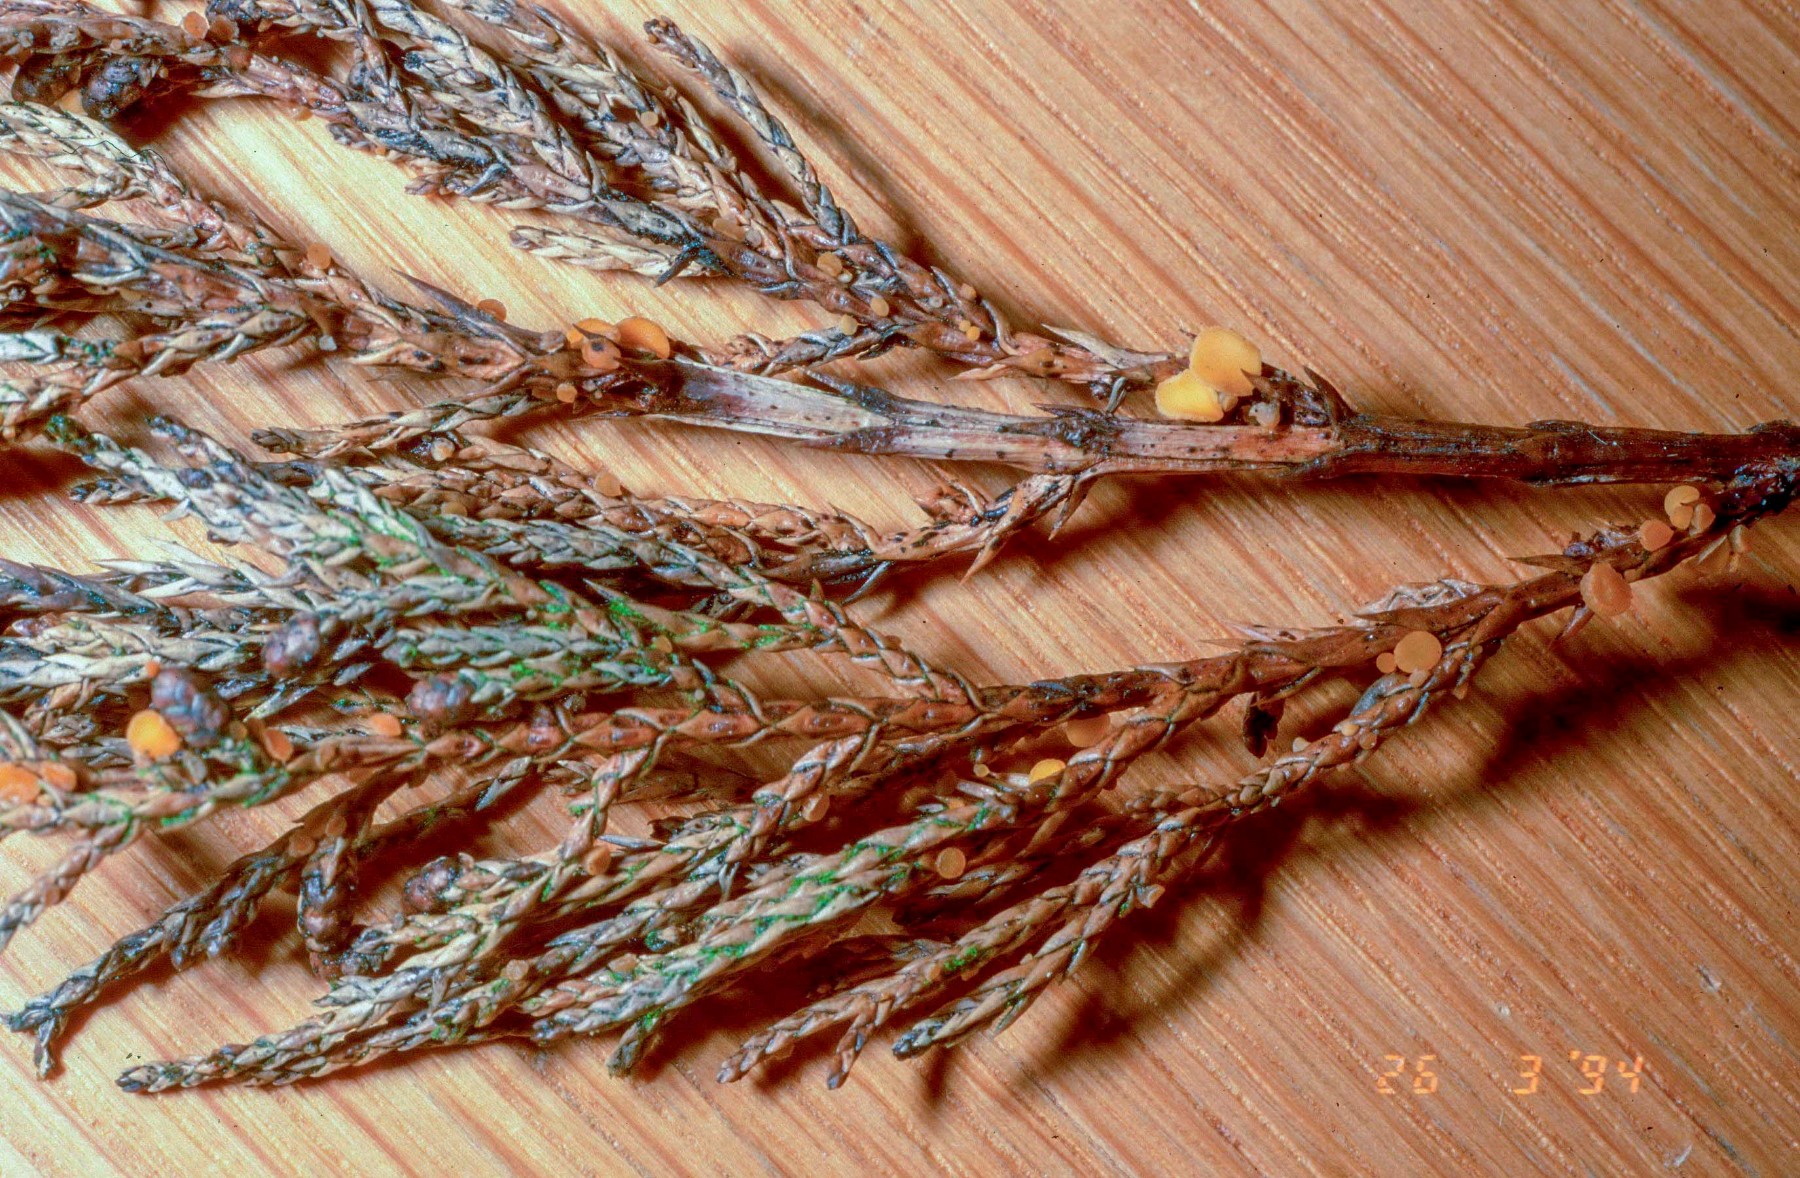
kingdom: Fungi
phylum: Ascomycota
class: Pezizomycetes
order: Pezizales
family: Sarcoscyphaceae
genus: Pithya
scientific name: Pithya cupressina
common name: lille dukatbæger
